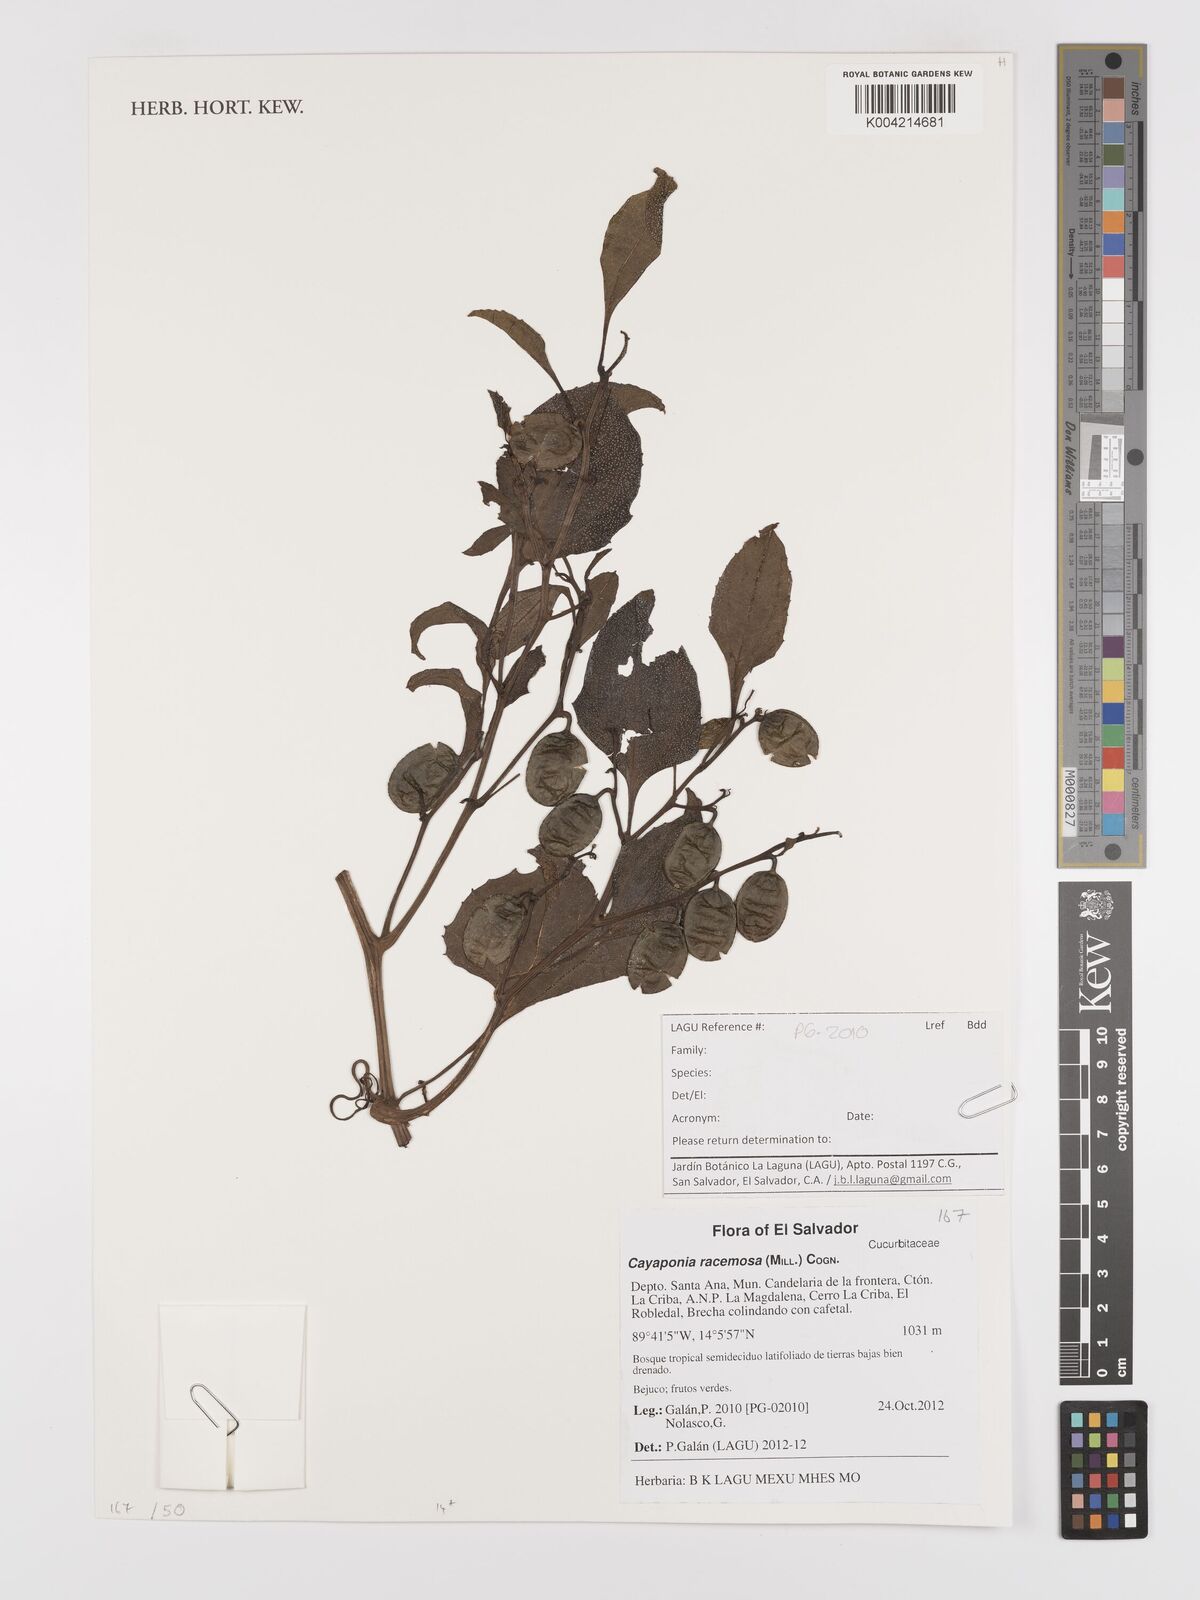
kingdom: Plantae
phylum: Tracheophyta
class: Magnoliopsida
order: Cucurbitales
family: Cucurbitaceae
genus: Cayaponia
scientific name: Cayaponia racemosa
